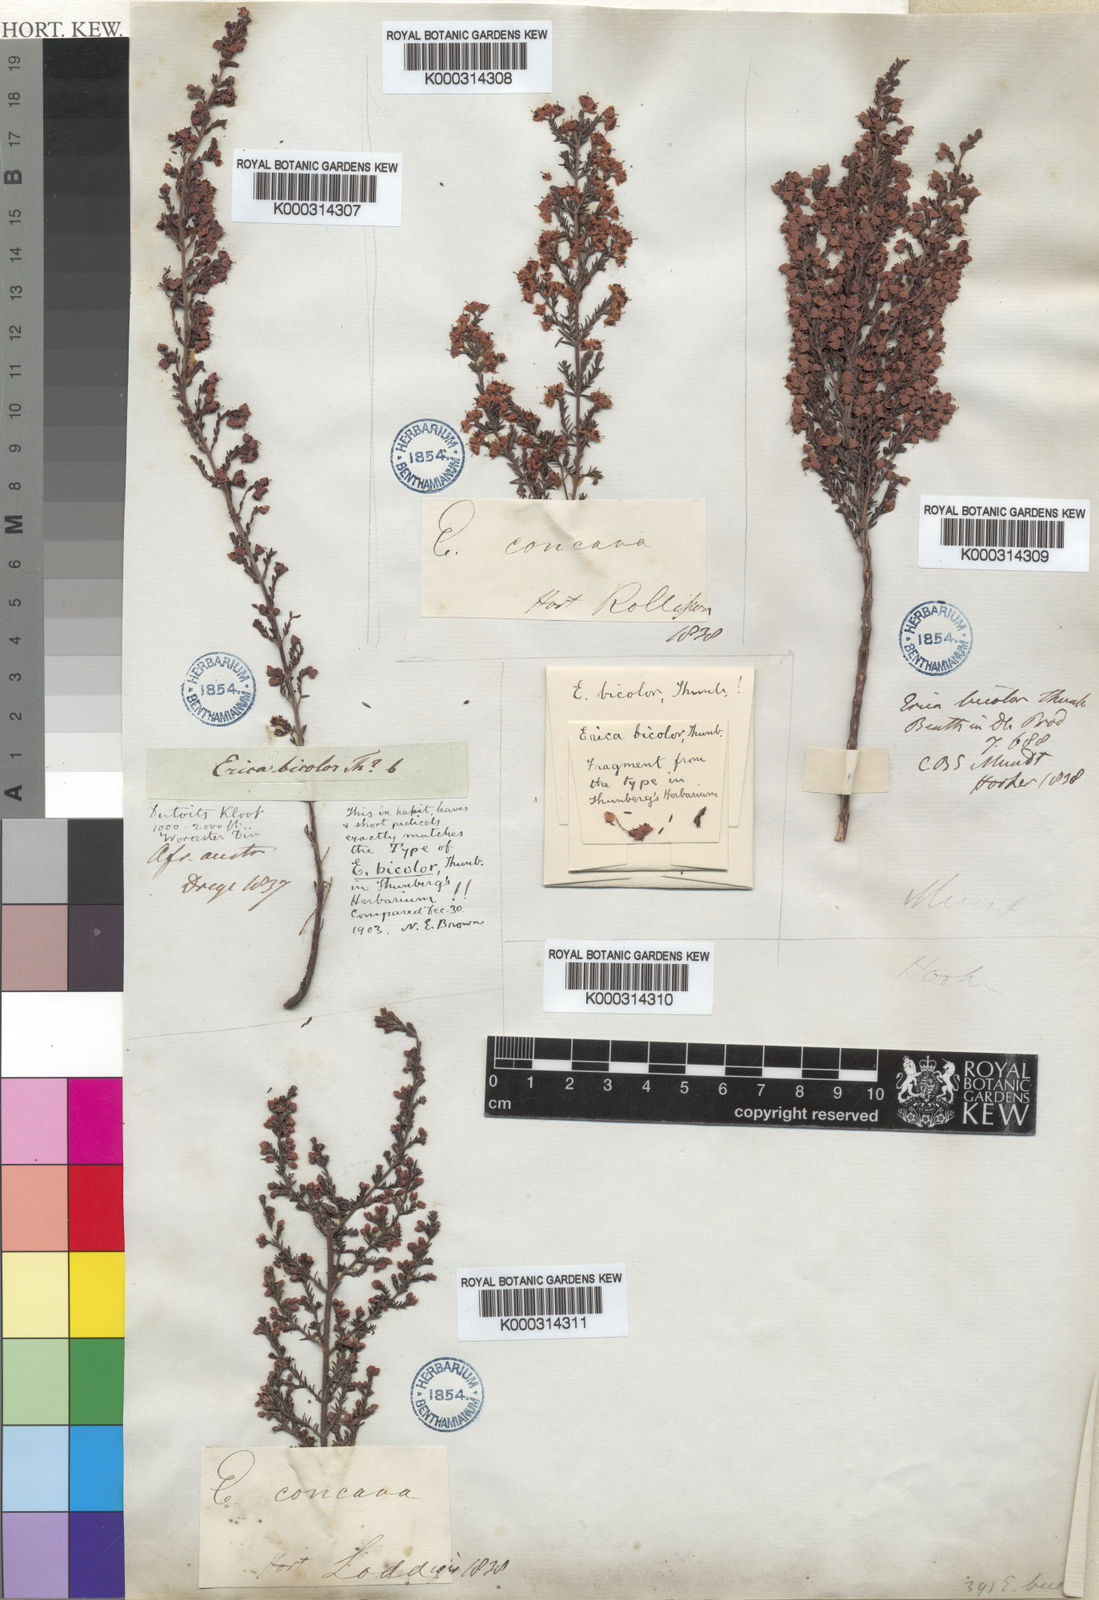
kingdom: Plantae
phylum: Tracheophyta
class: Magnoliopsida
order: Ericales
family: Ericaceae
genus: Erica
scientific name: Erica bicolor
